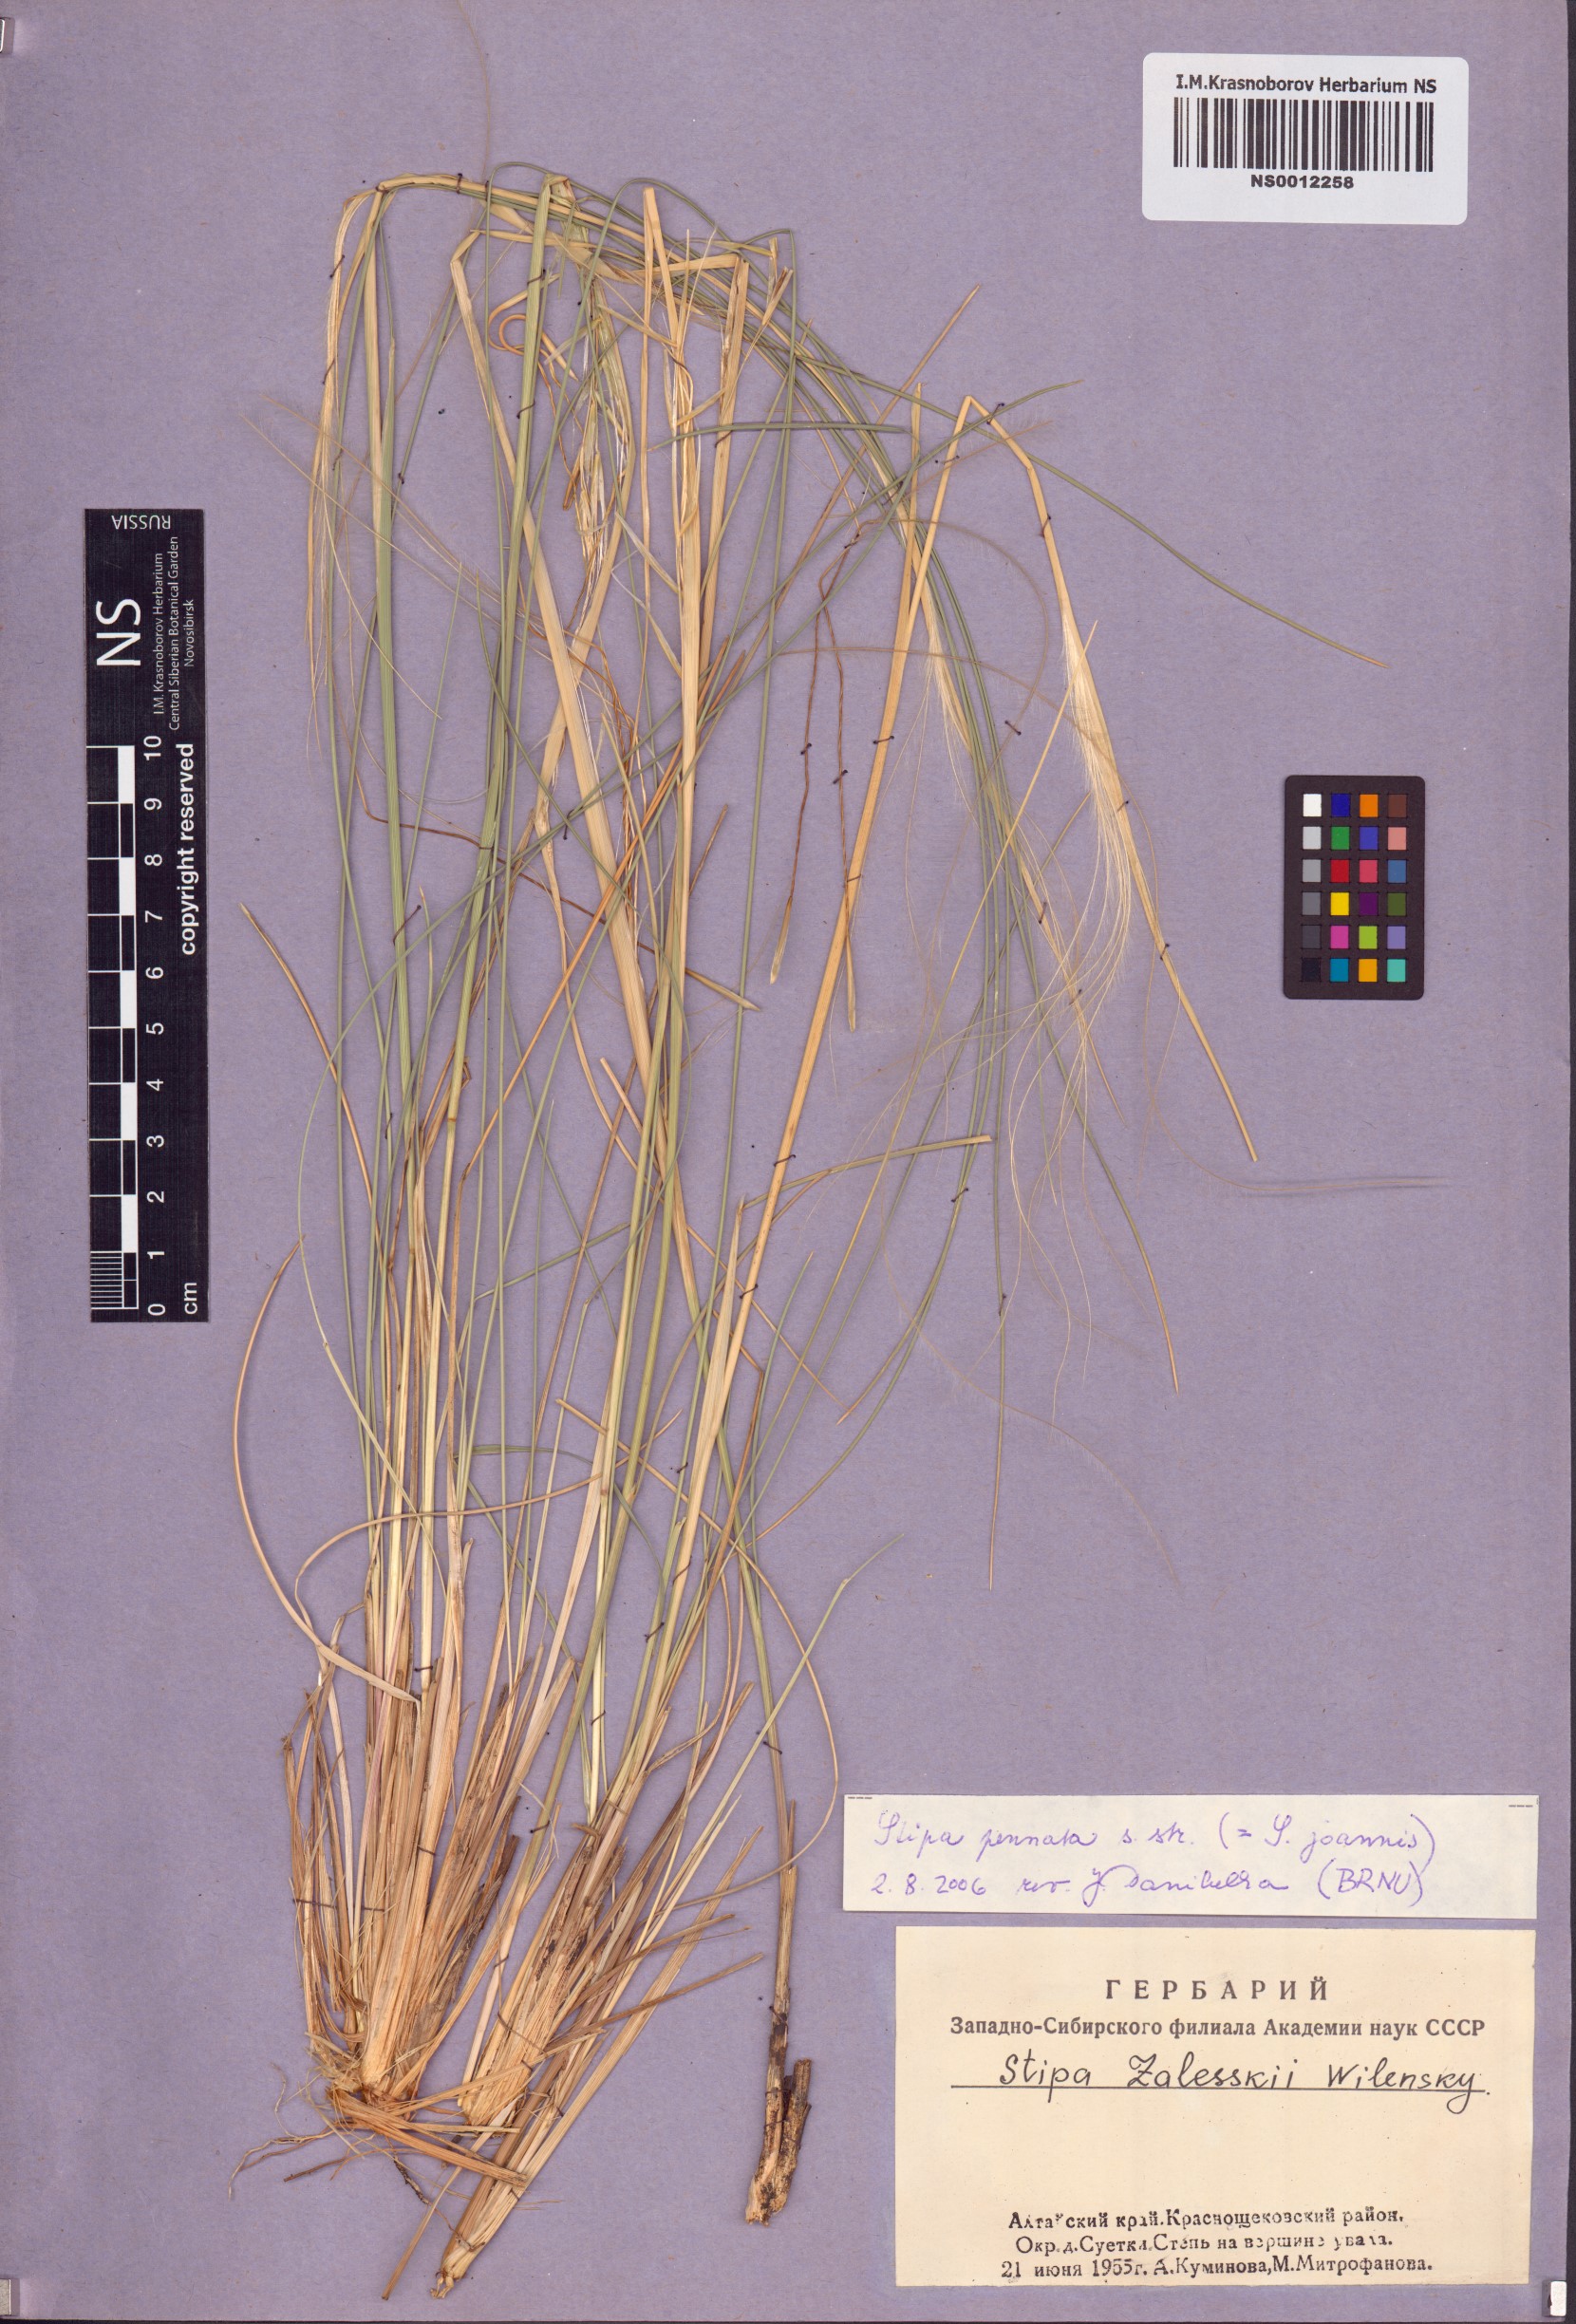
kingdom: Plantae
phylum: Tracheophyta
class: Liliopsida
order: Poales
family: Poaceae
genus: Stipa
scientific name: Stipa pennata
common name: European feather grass
